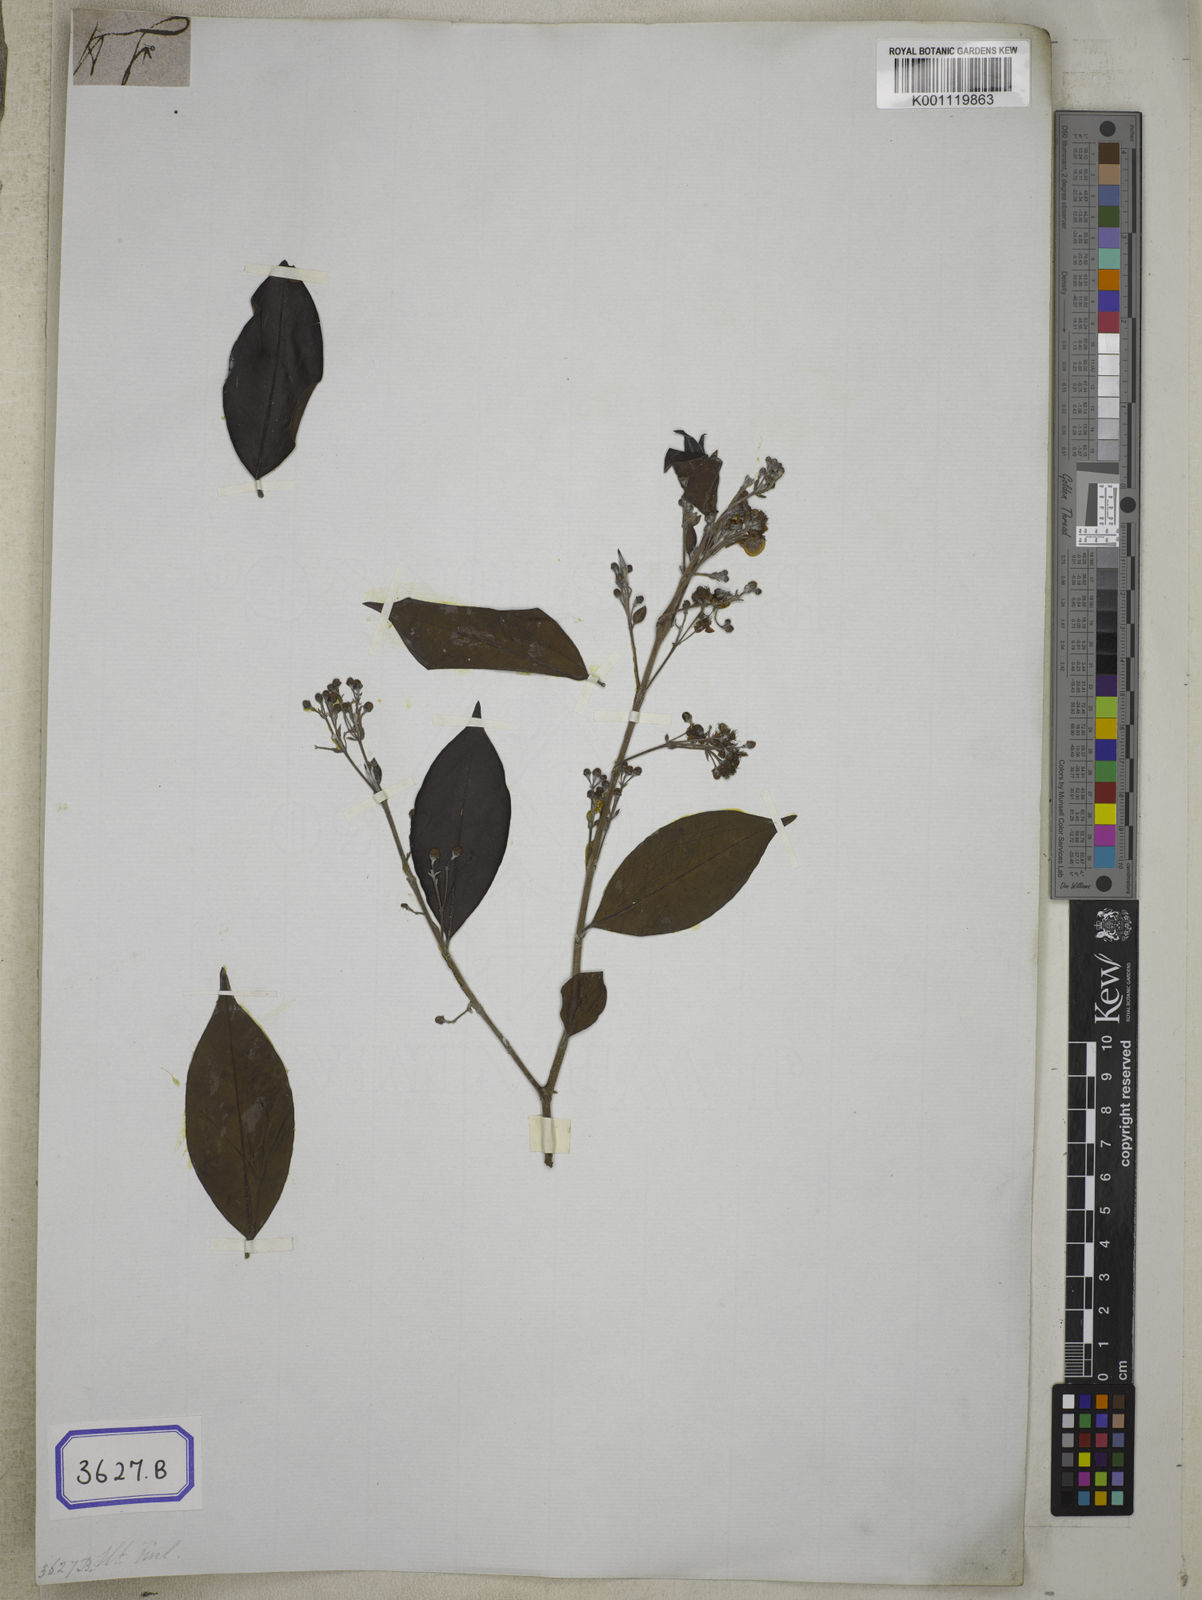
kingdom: Plantae
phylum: Tracheophyta
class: Magnoliopsida
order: Myrtales
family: Myrtaceae
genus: Decaspermum
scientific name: Decaspermum parviflorum
